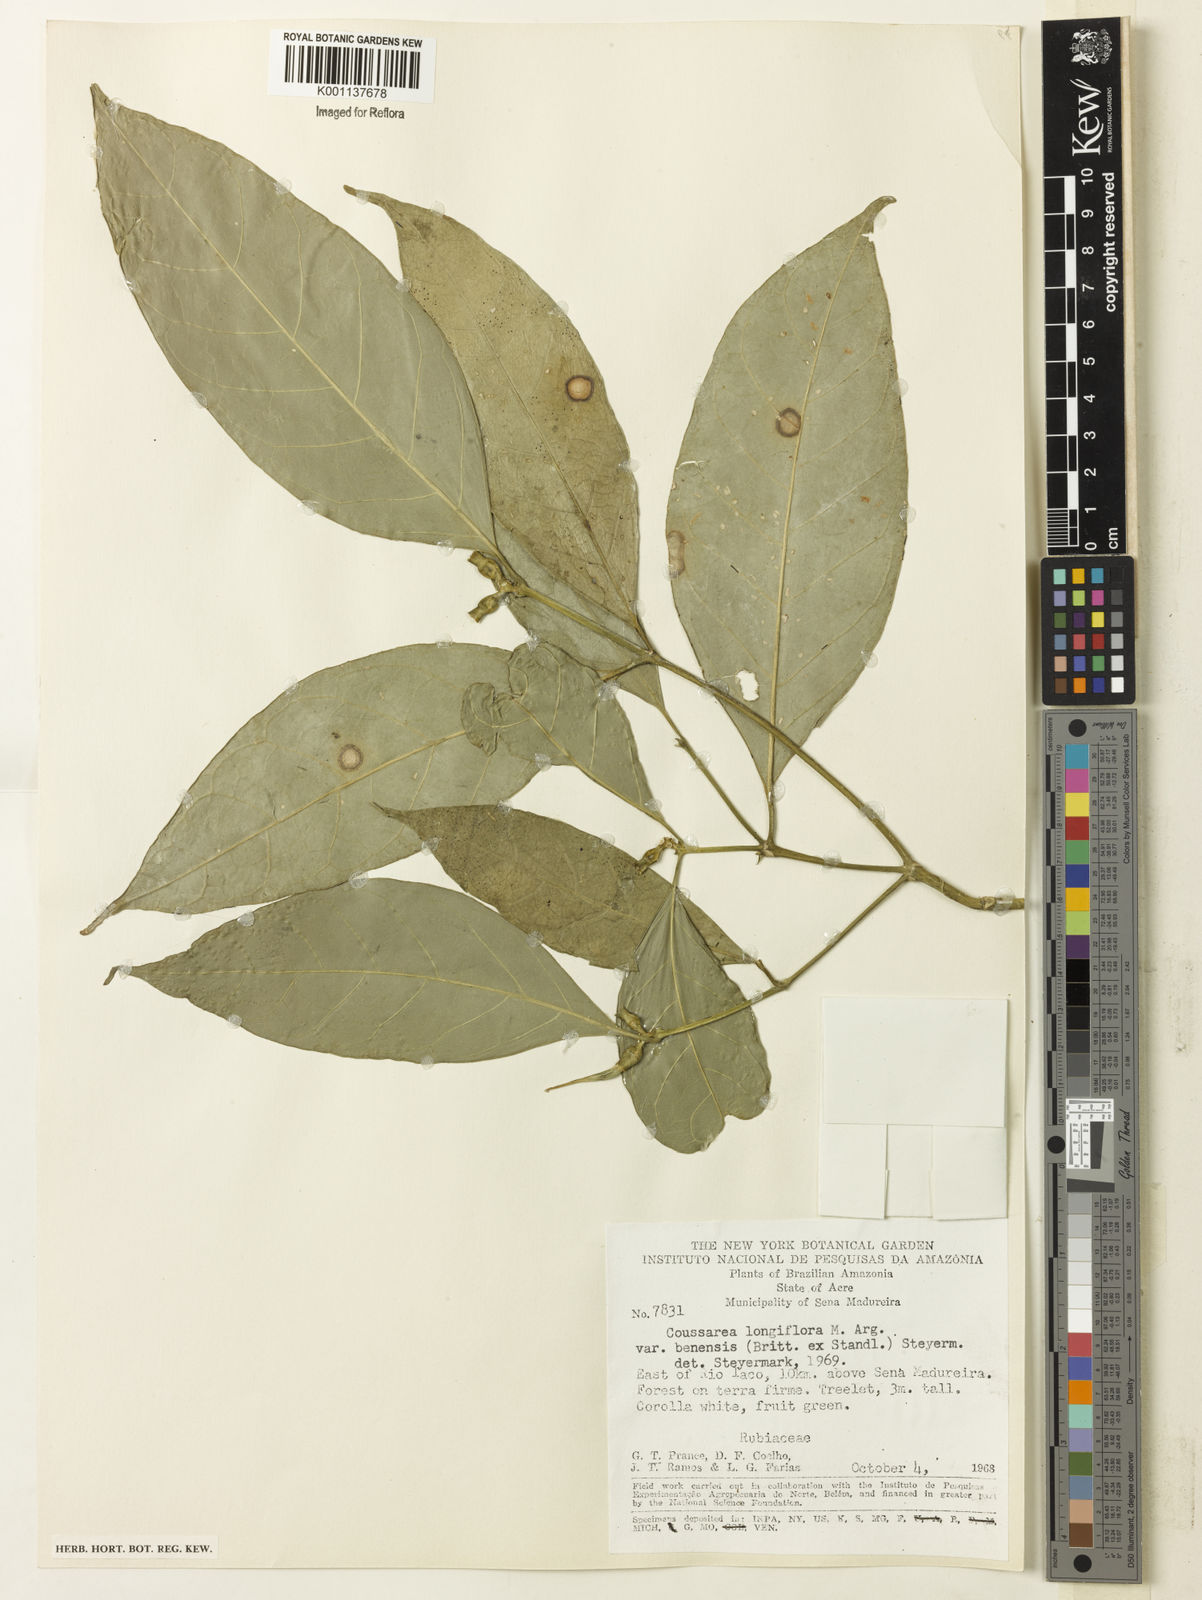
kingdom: Plantae
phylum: Tracheophyta
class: Magnoliopsida
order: Gentianales
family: Rubiaceae
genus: Coussarea
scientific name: Coussarea
